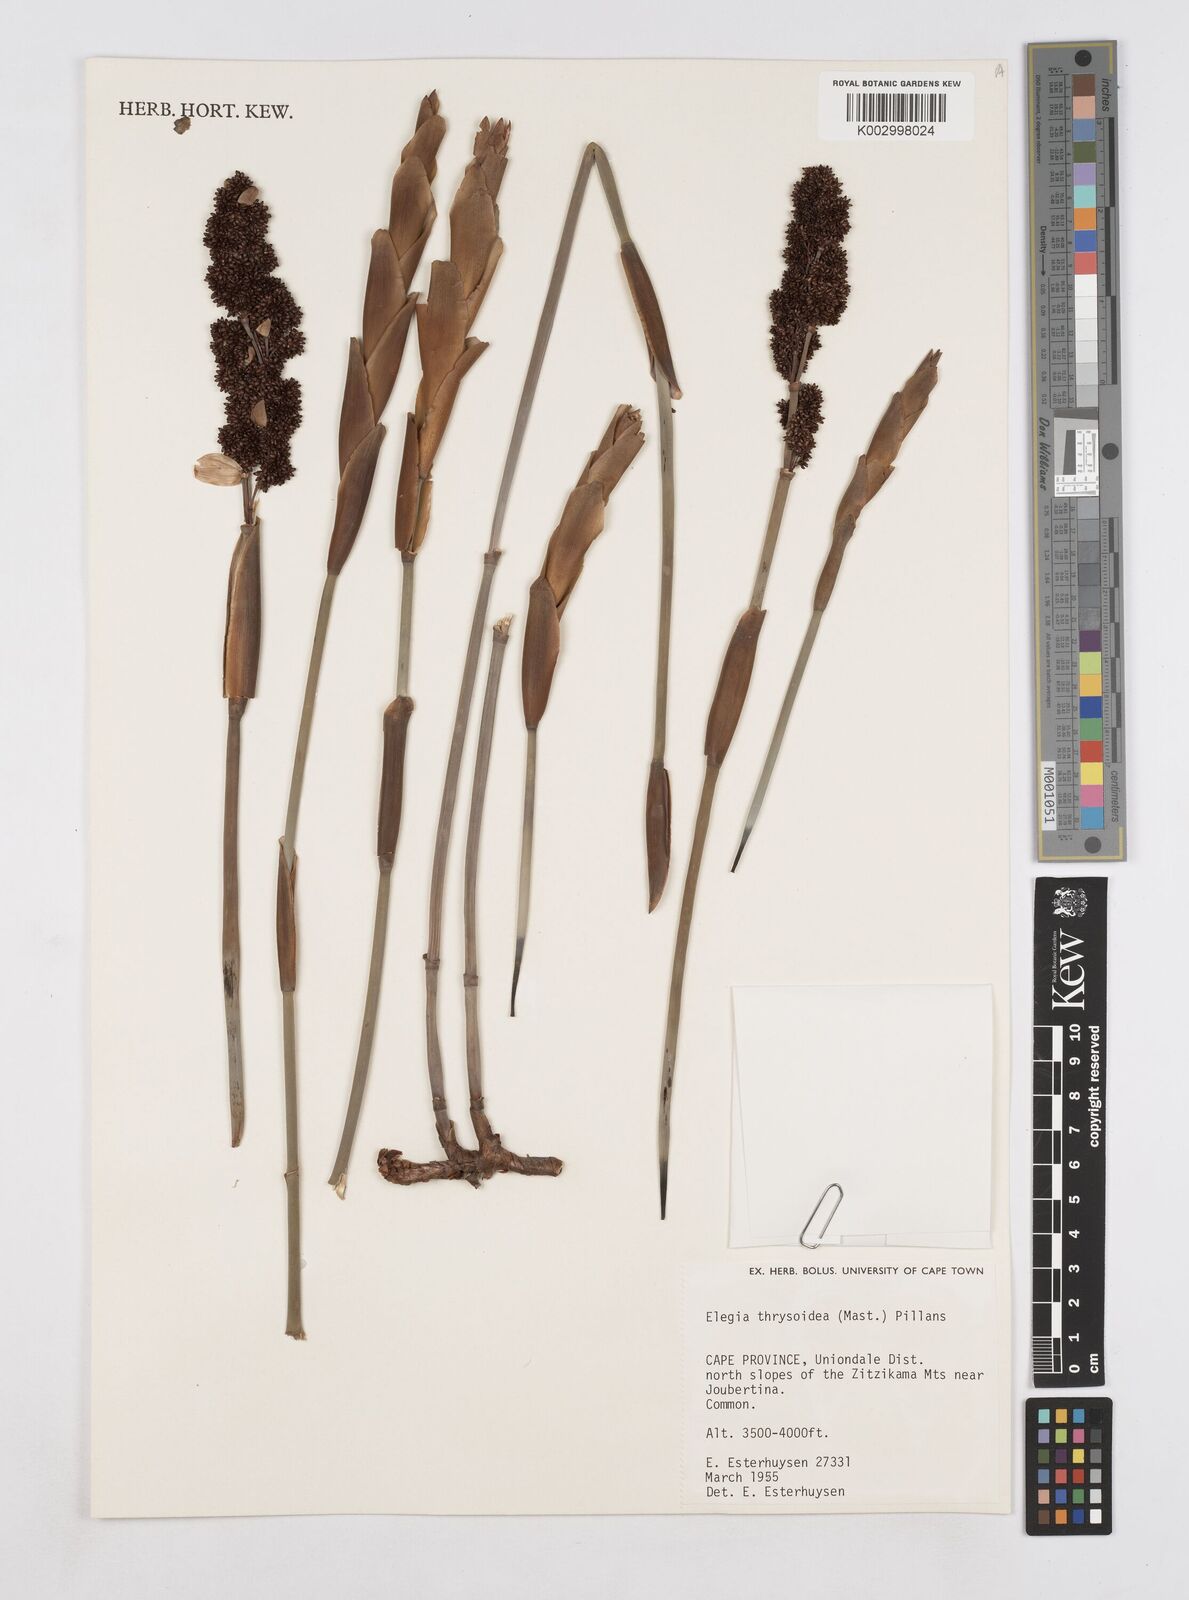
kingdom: Plantae
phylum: Tracheophyta
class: Liliopsida
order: Poales
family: Restionaceae
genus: Elegia
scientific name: Elegia thyrsoidea
